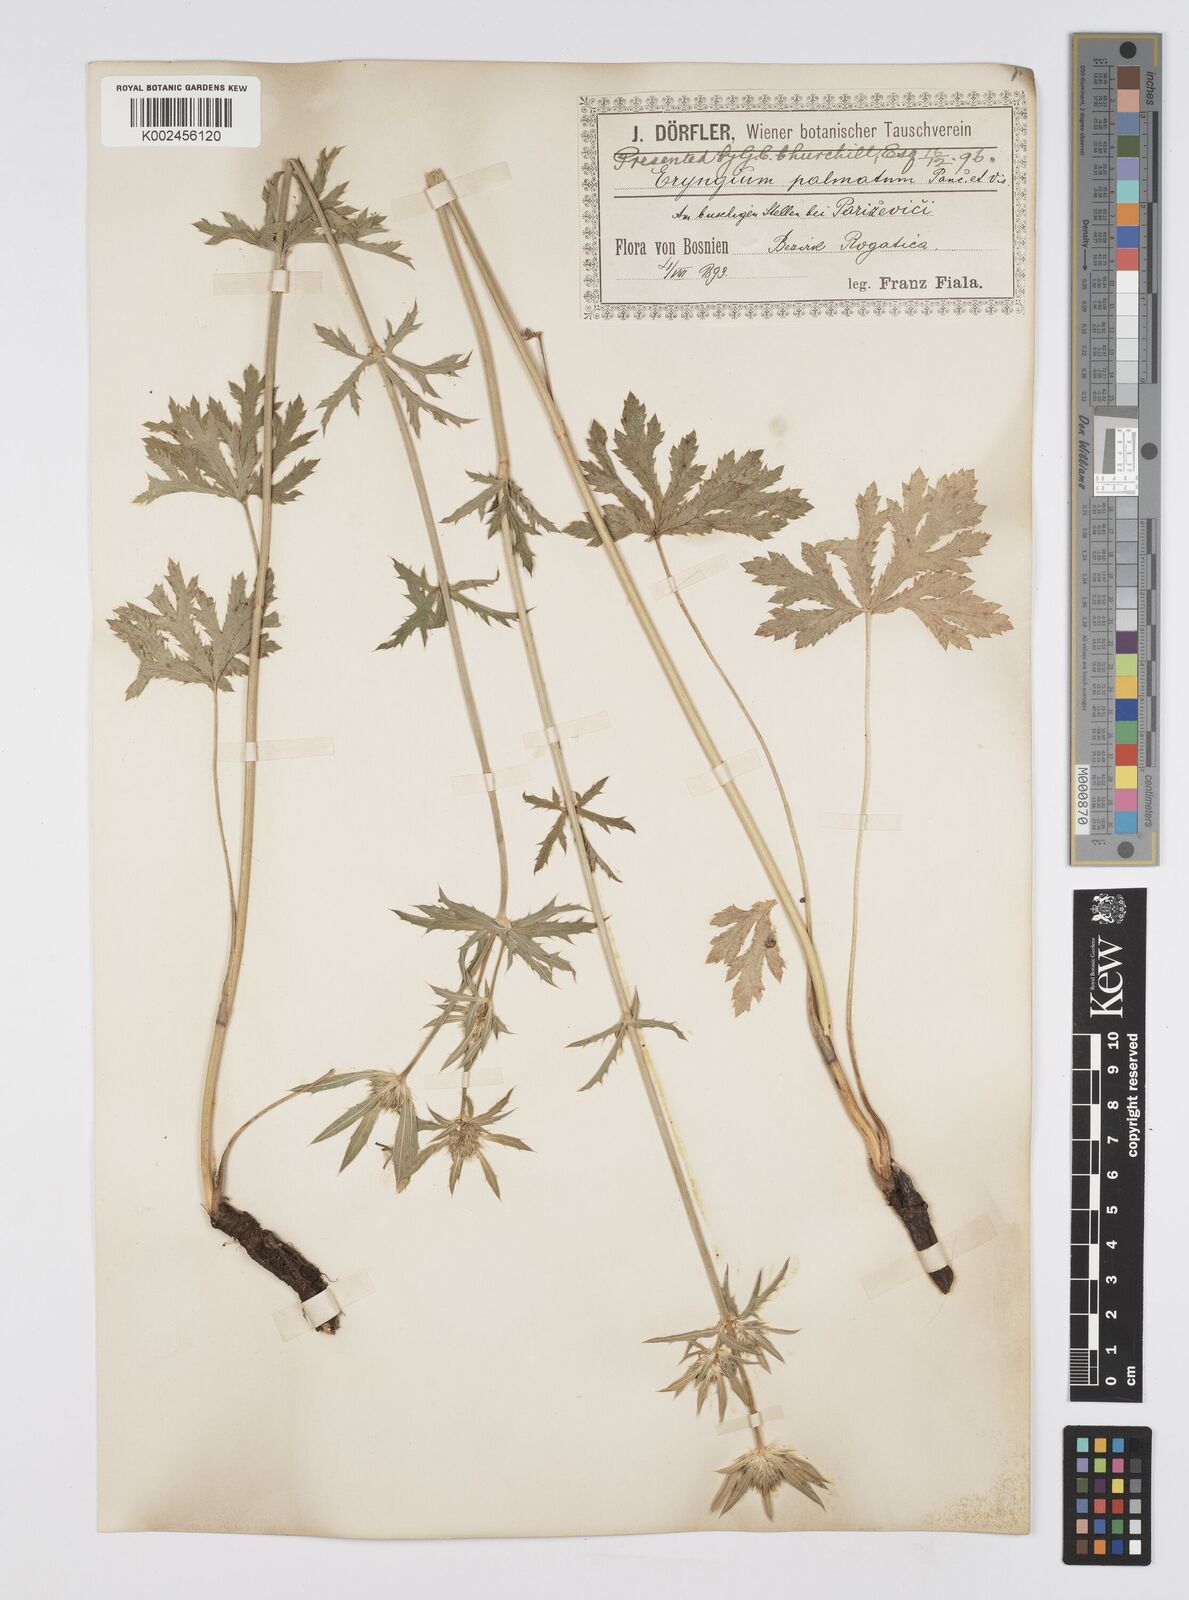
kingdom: Plantae
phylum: Tracheophyta
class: Magnoliopsida
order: Apiales
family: Apiaceae
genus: Eryngium
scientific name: Eryngium palmatum
